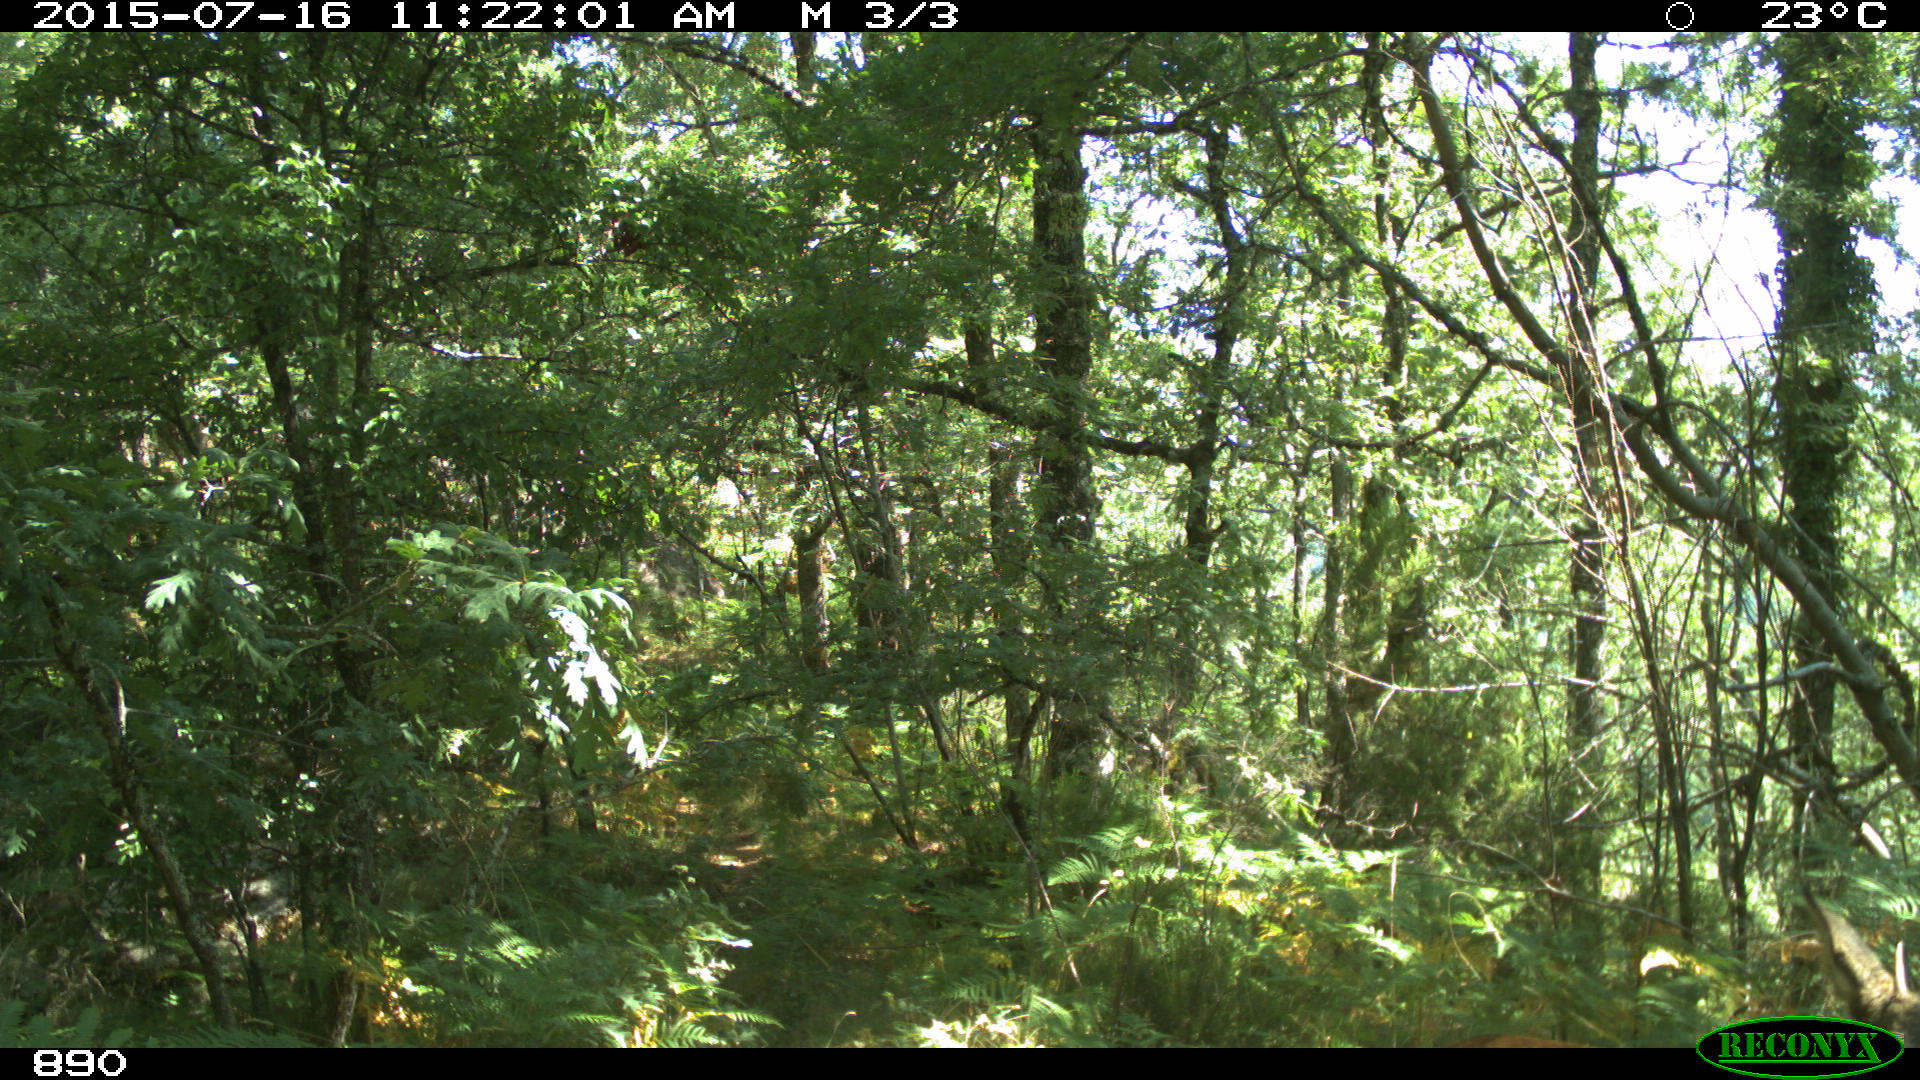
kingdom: Animalia
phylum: Chordata
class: Mammalia
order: Artiodactyla
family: Cervidae
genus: Capreolus
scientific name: Capreolus capreolus
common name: Western roe deer
